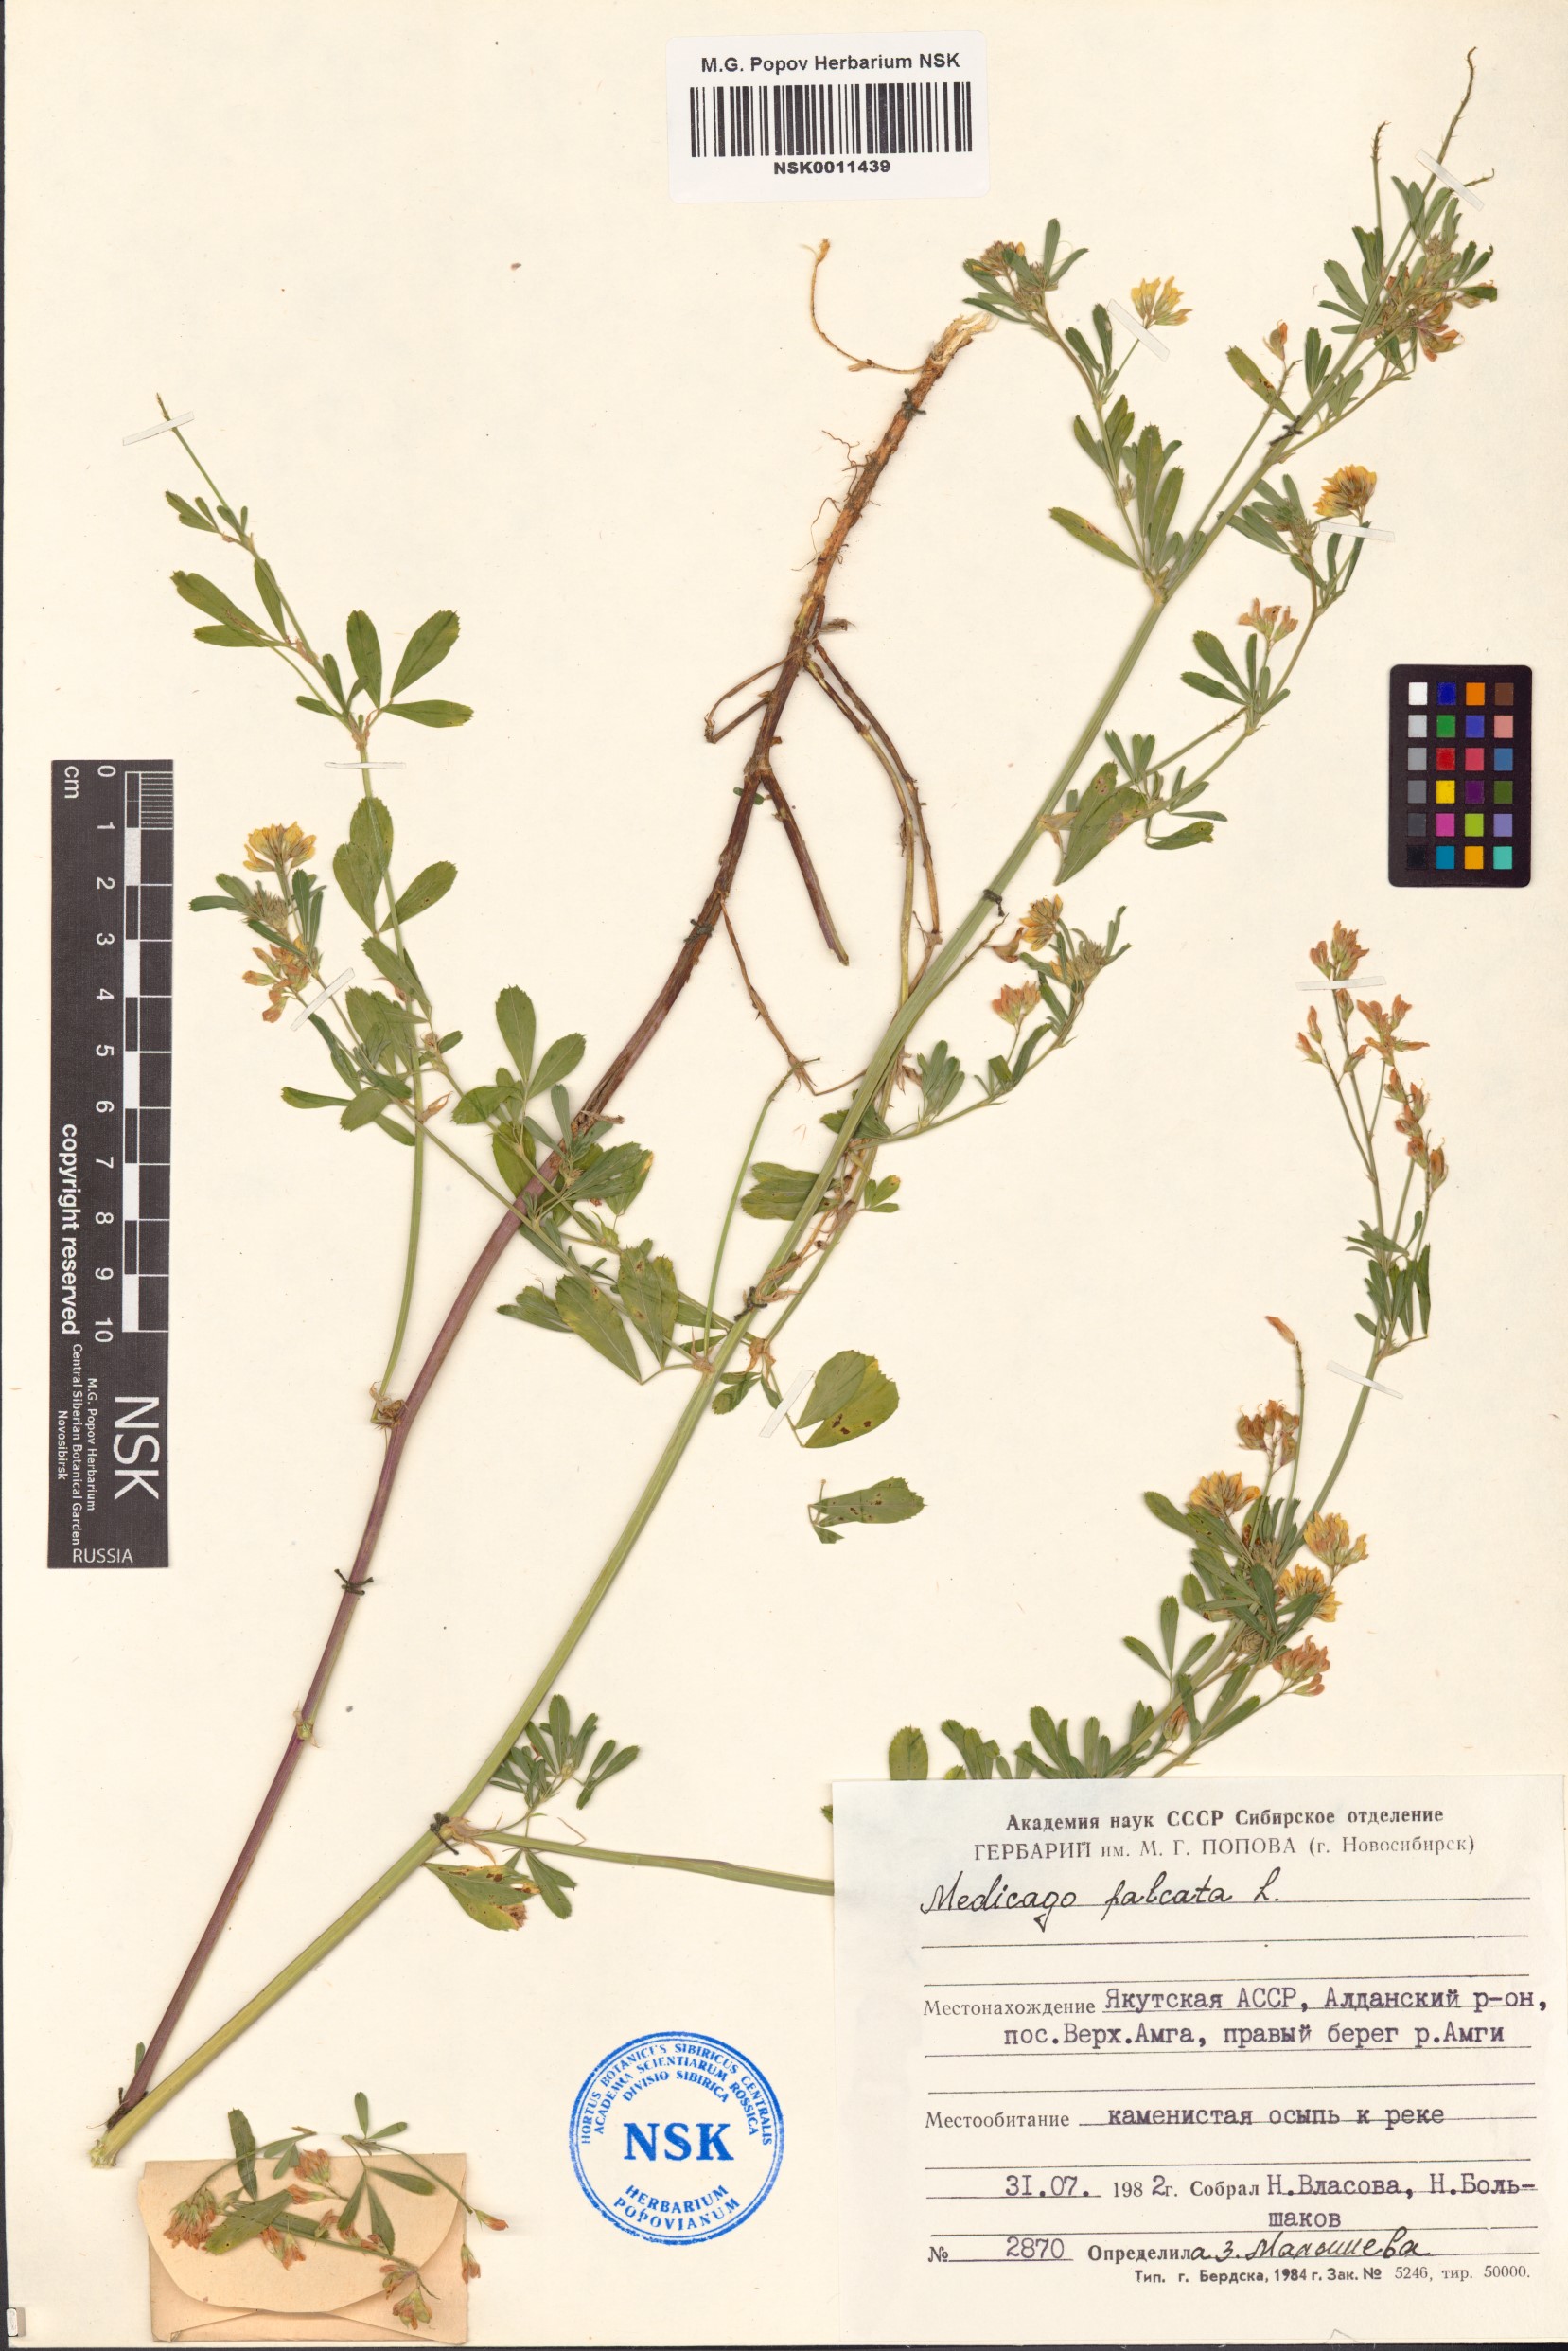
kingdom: Plantae
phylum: Tracheophyta
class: Magnoliopsida
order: Fabales
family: Fabaceae
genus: Medicago
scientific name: Medicago falcata
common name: Sickle medick
